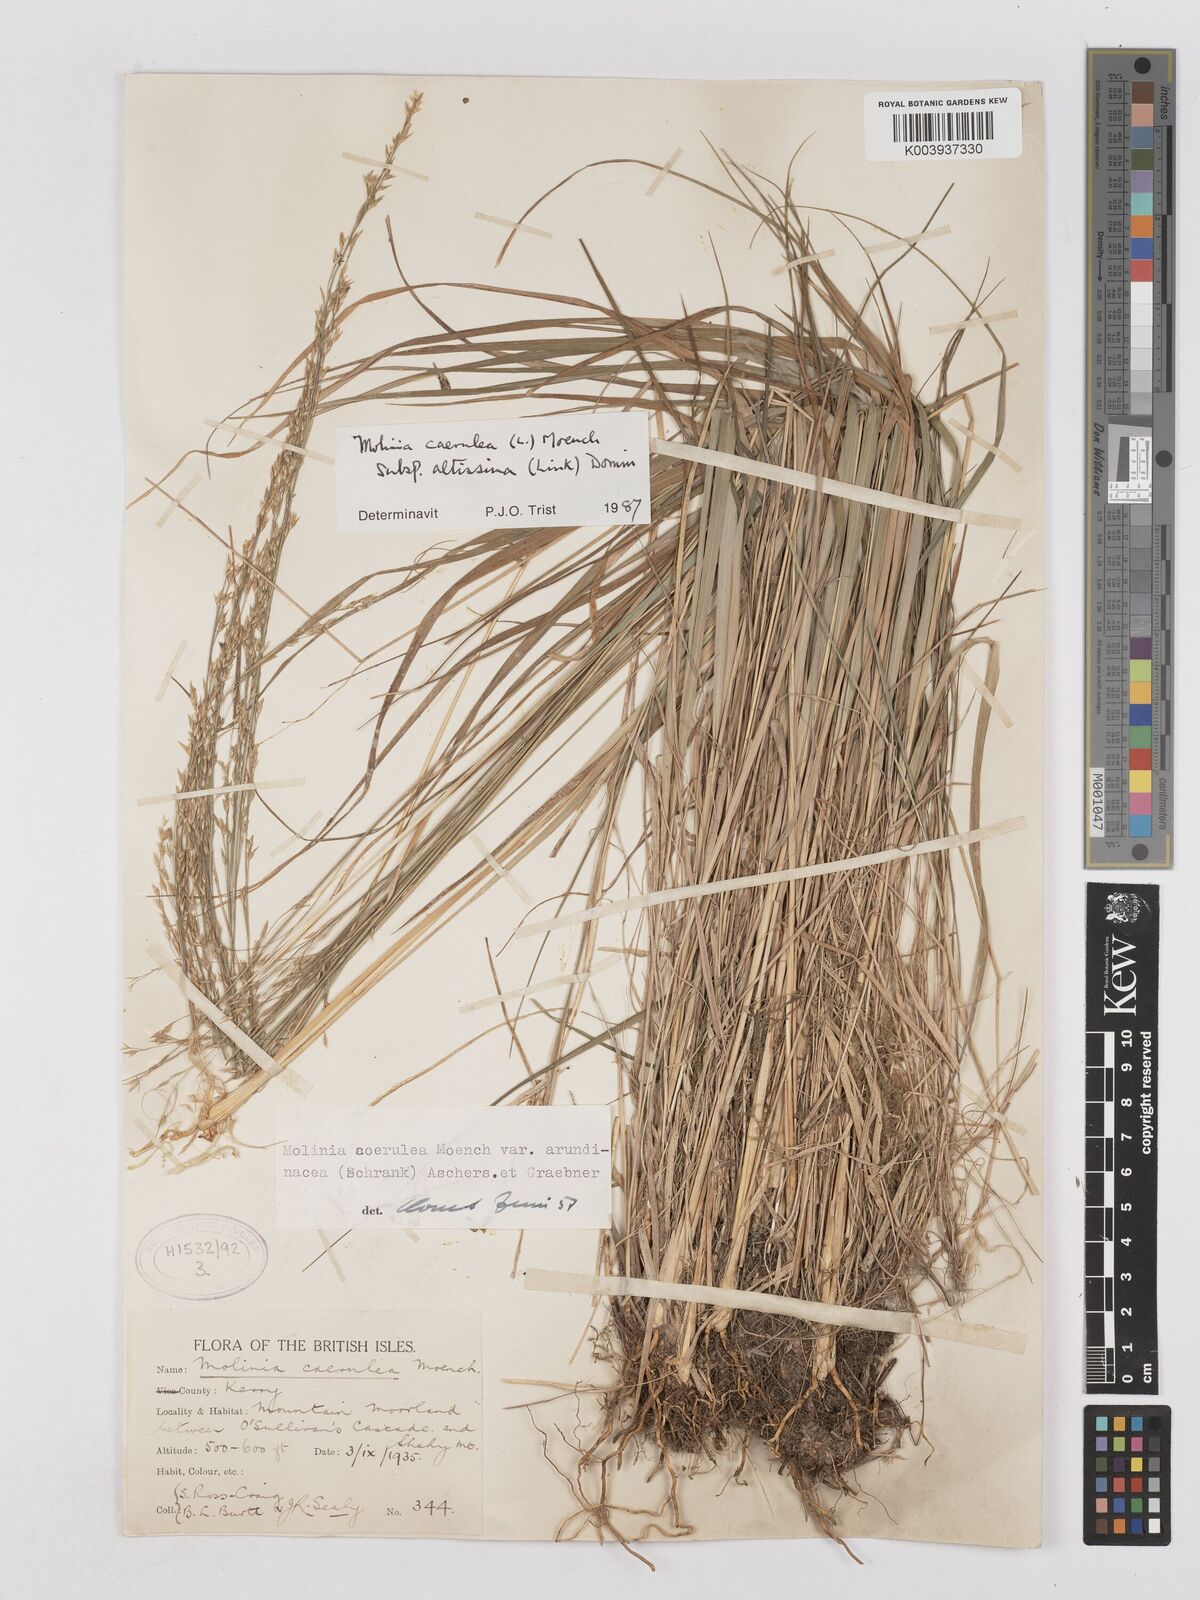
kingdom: Plantae
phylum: Tracheophyta
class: Liliopsida
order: Poales
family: Poaceae
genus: Molinia
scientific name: Molinia caerulea
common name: Purple moor-grass
